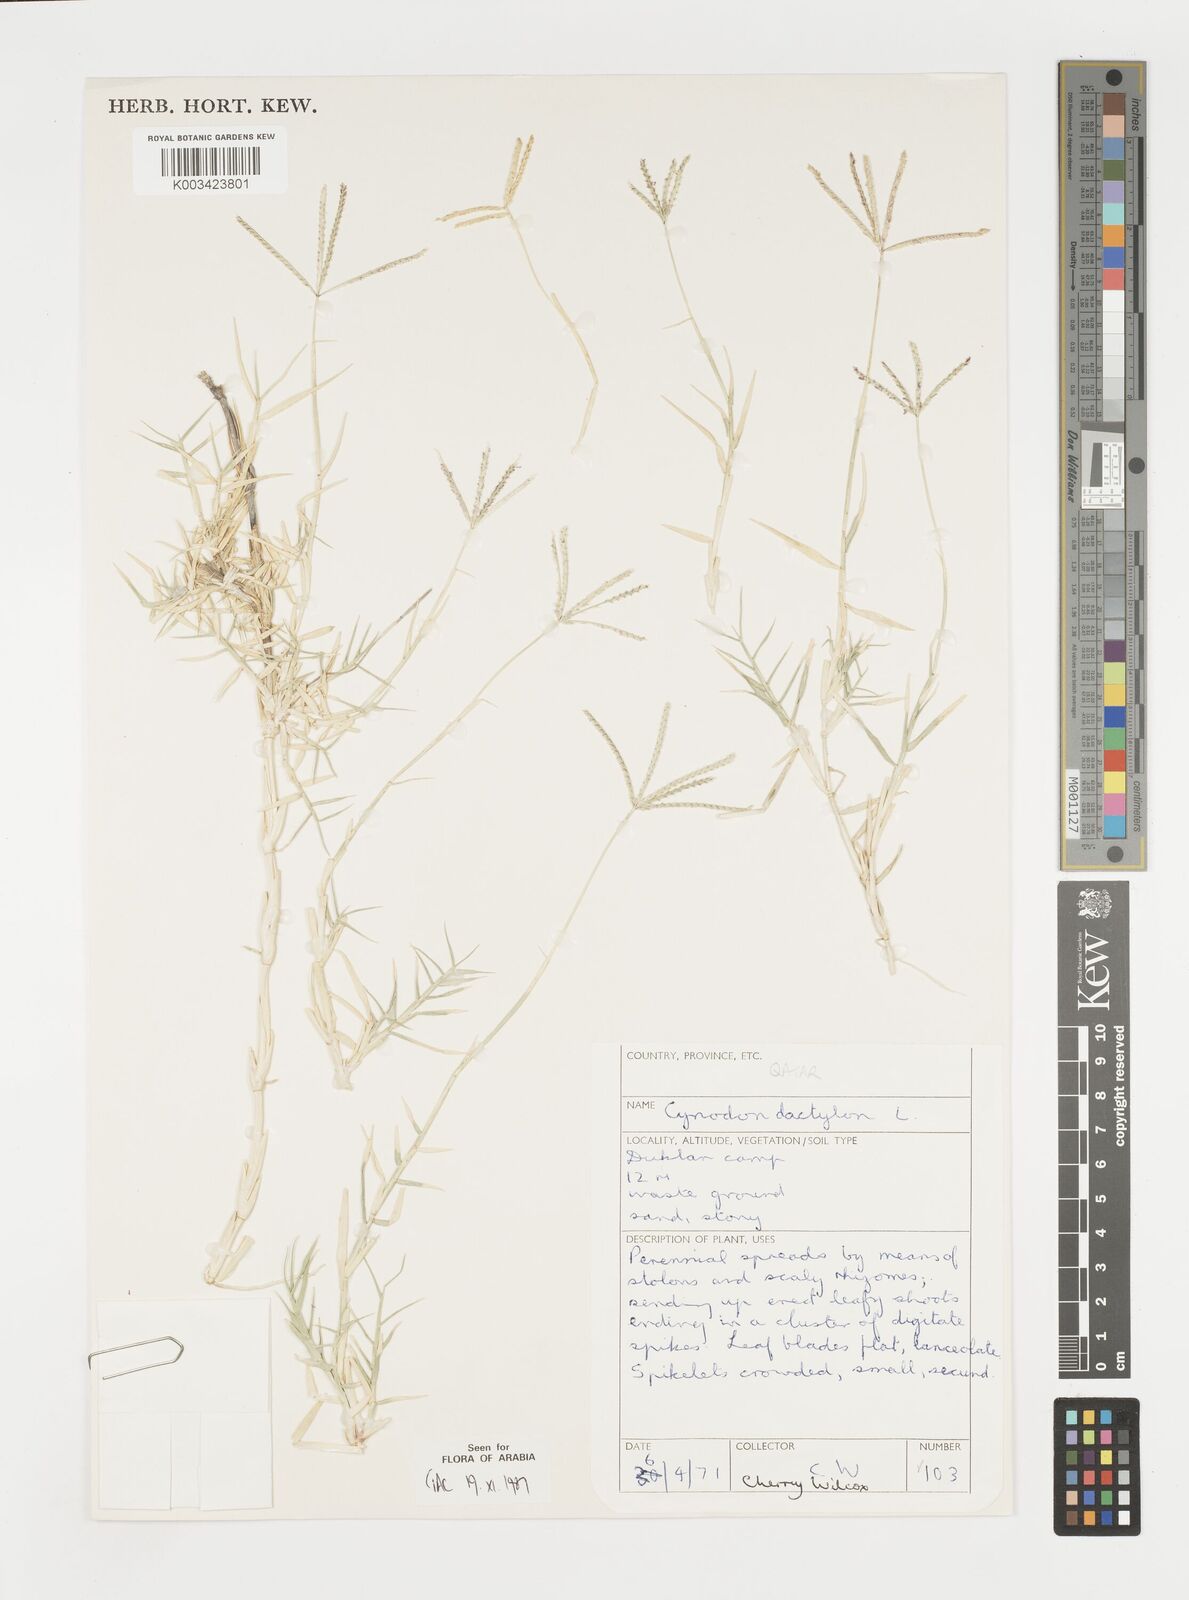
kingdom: Plantae
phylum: Tracheophyta
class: Liliopsida
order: Poales
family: Poaceae
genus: Cynodon
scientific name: Cynodon dactylon
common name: Bermuda grass
